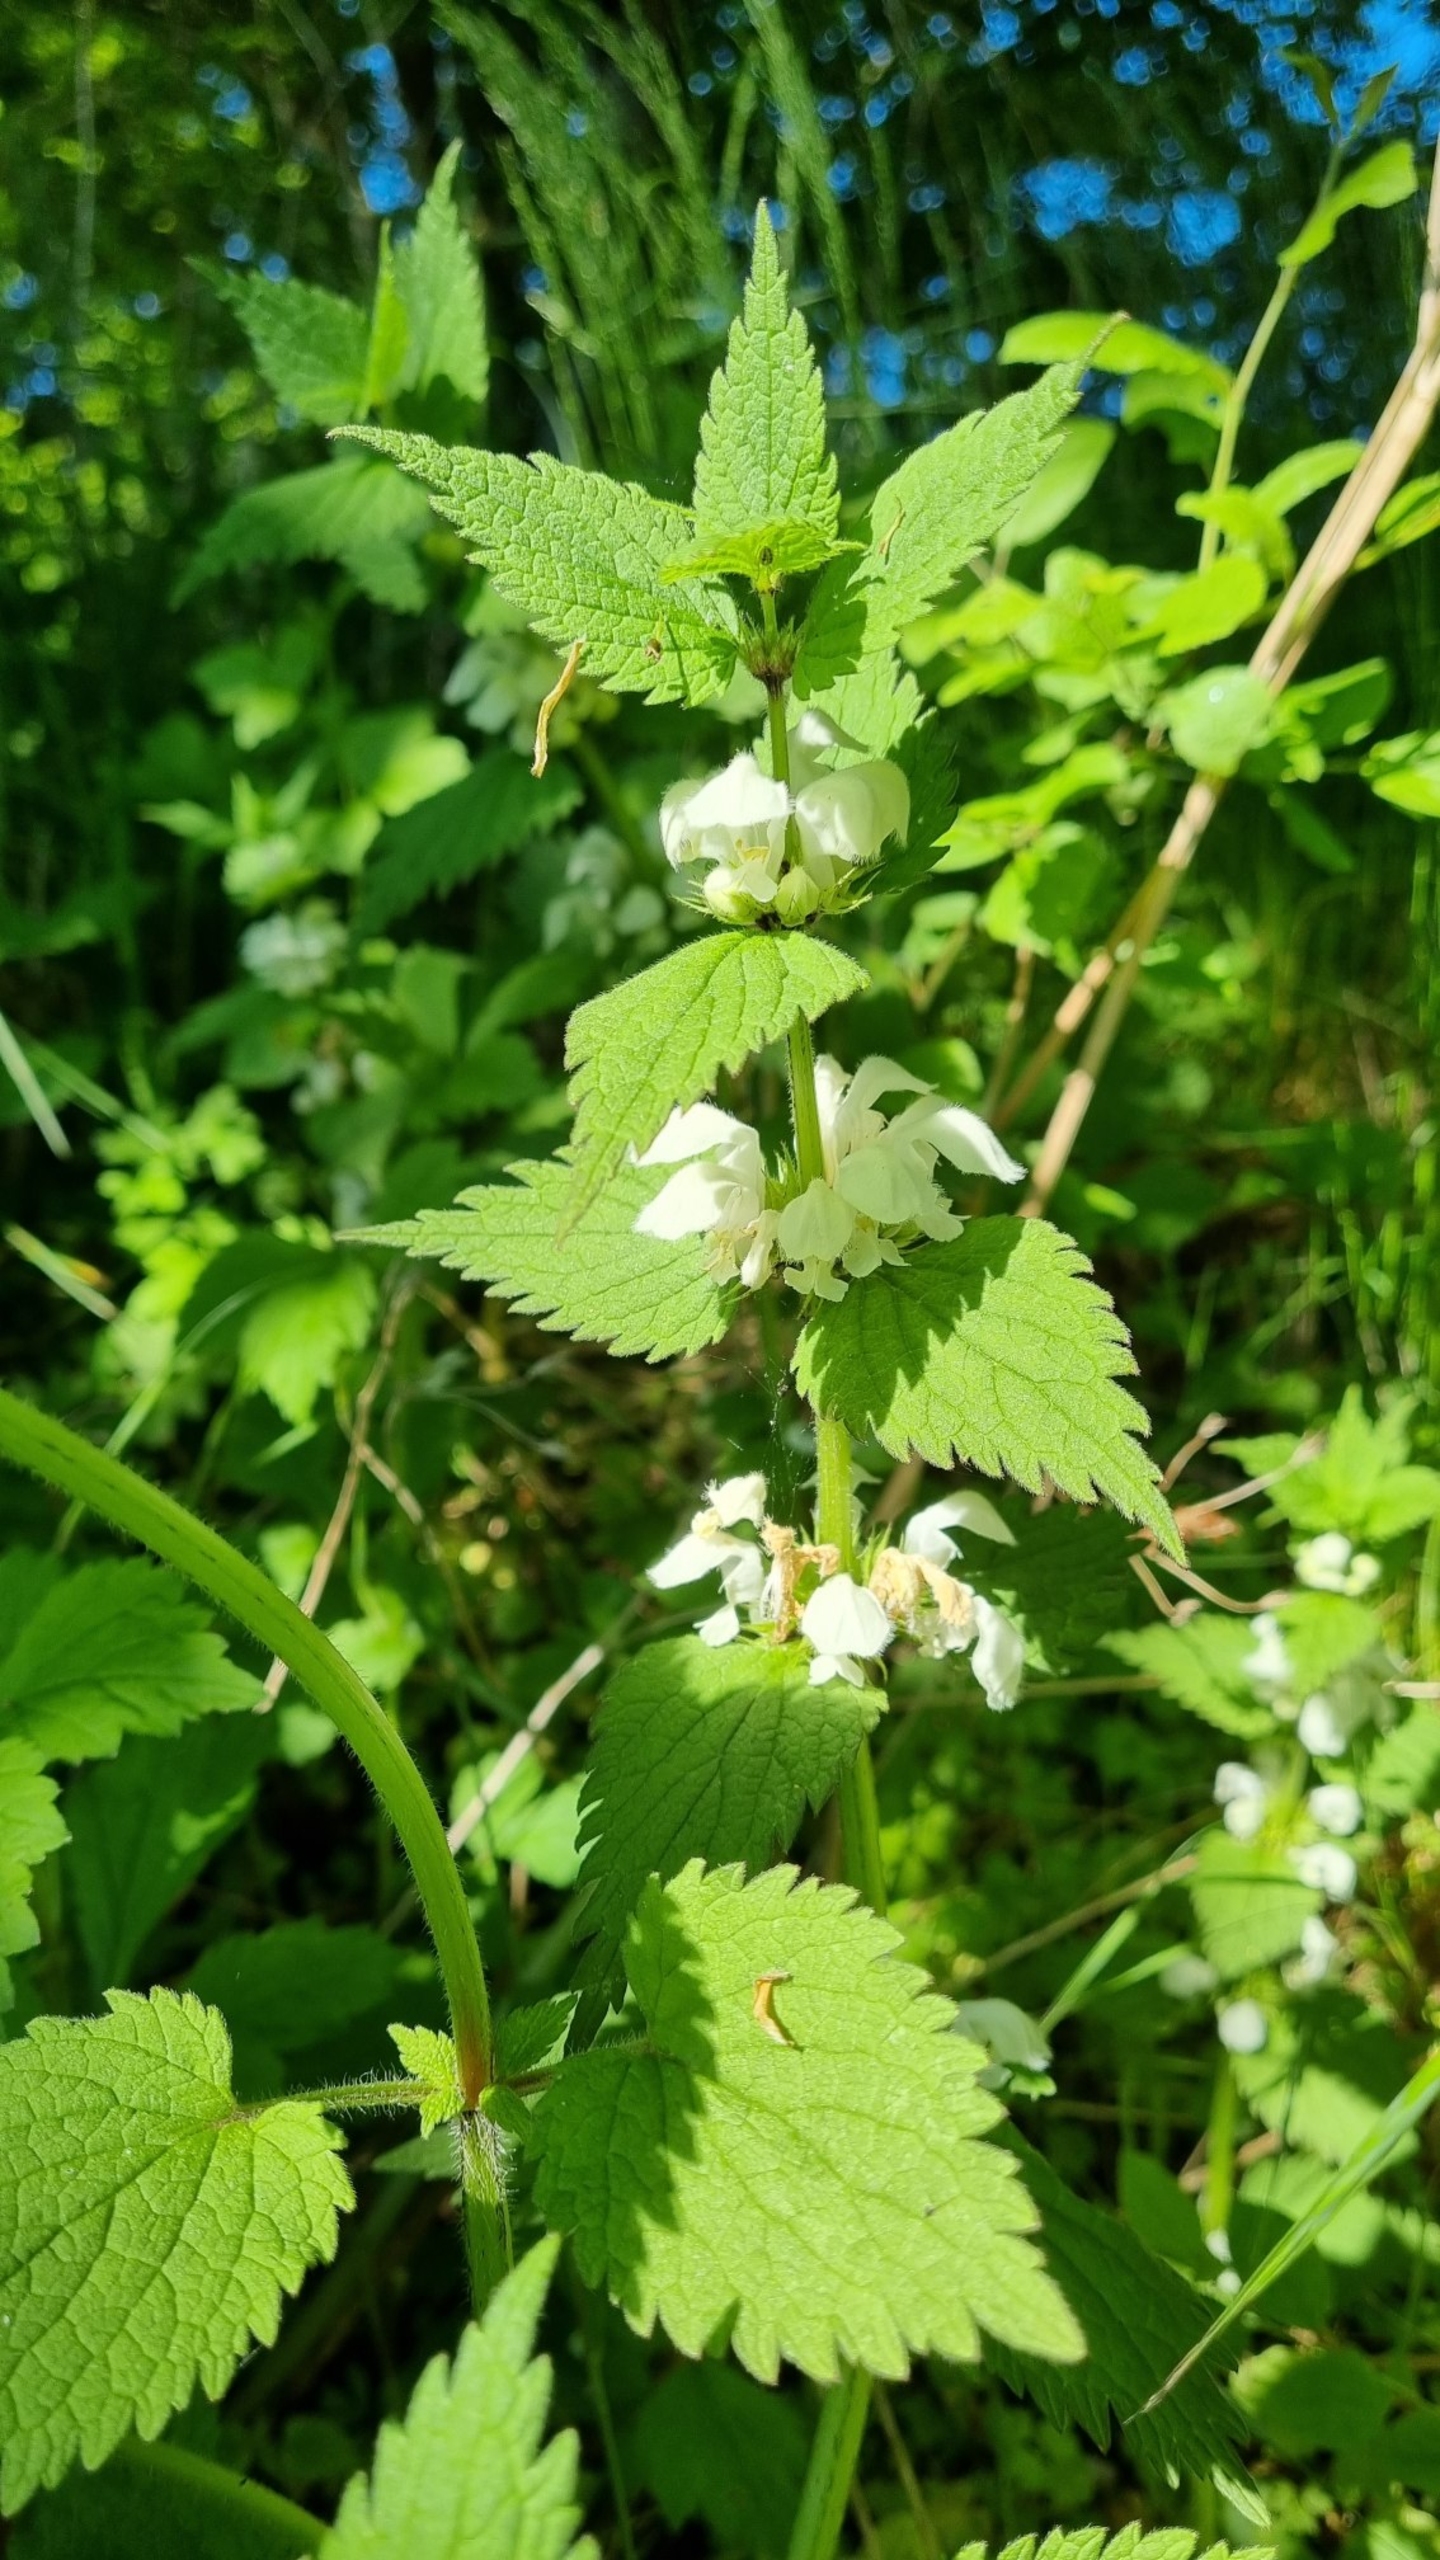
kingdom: Plantae
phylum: Tracheophyta
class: Magnoliopsida
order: Lamiales
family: Lamiaceae
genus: Lamium
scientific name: Lamium album
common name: Døvnælde
